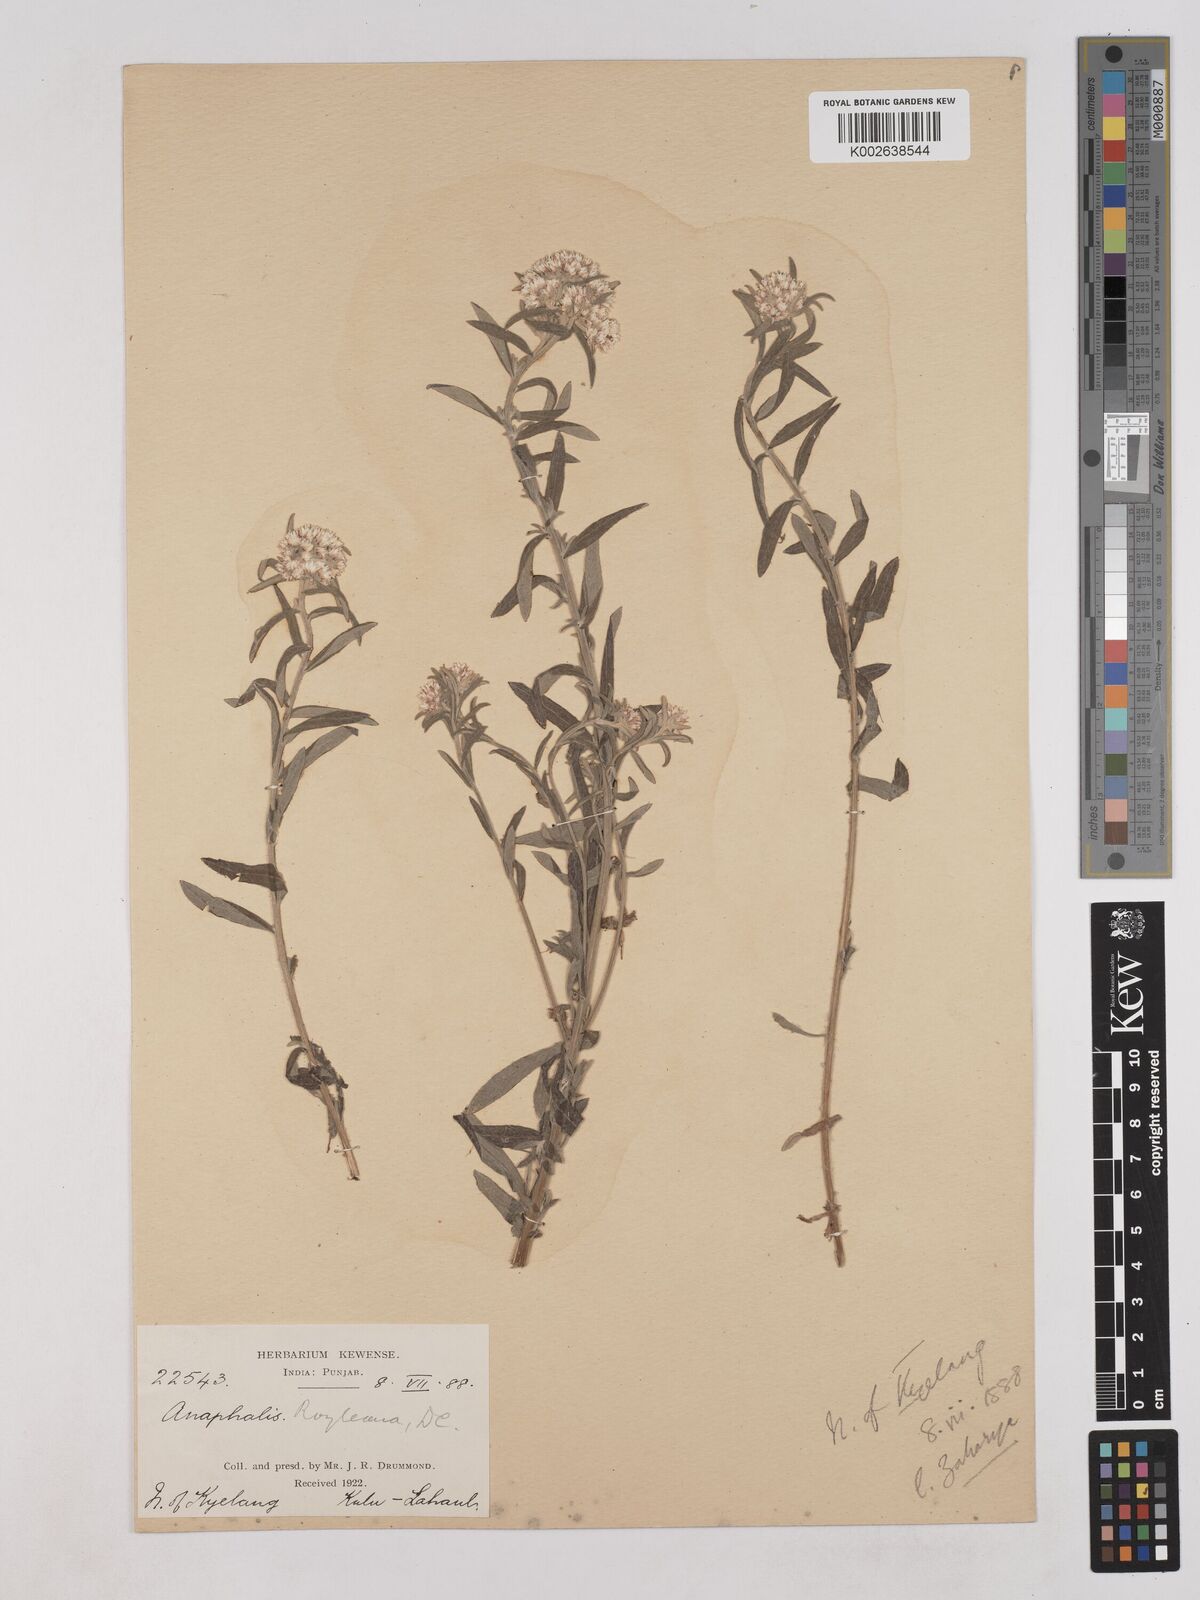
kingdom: Plantae
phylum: Tracheophyta
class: Magnoliopsida
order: Asterales
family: Asteraceae
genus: Anaphalis
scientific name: Anaphalis royleana
